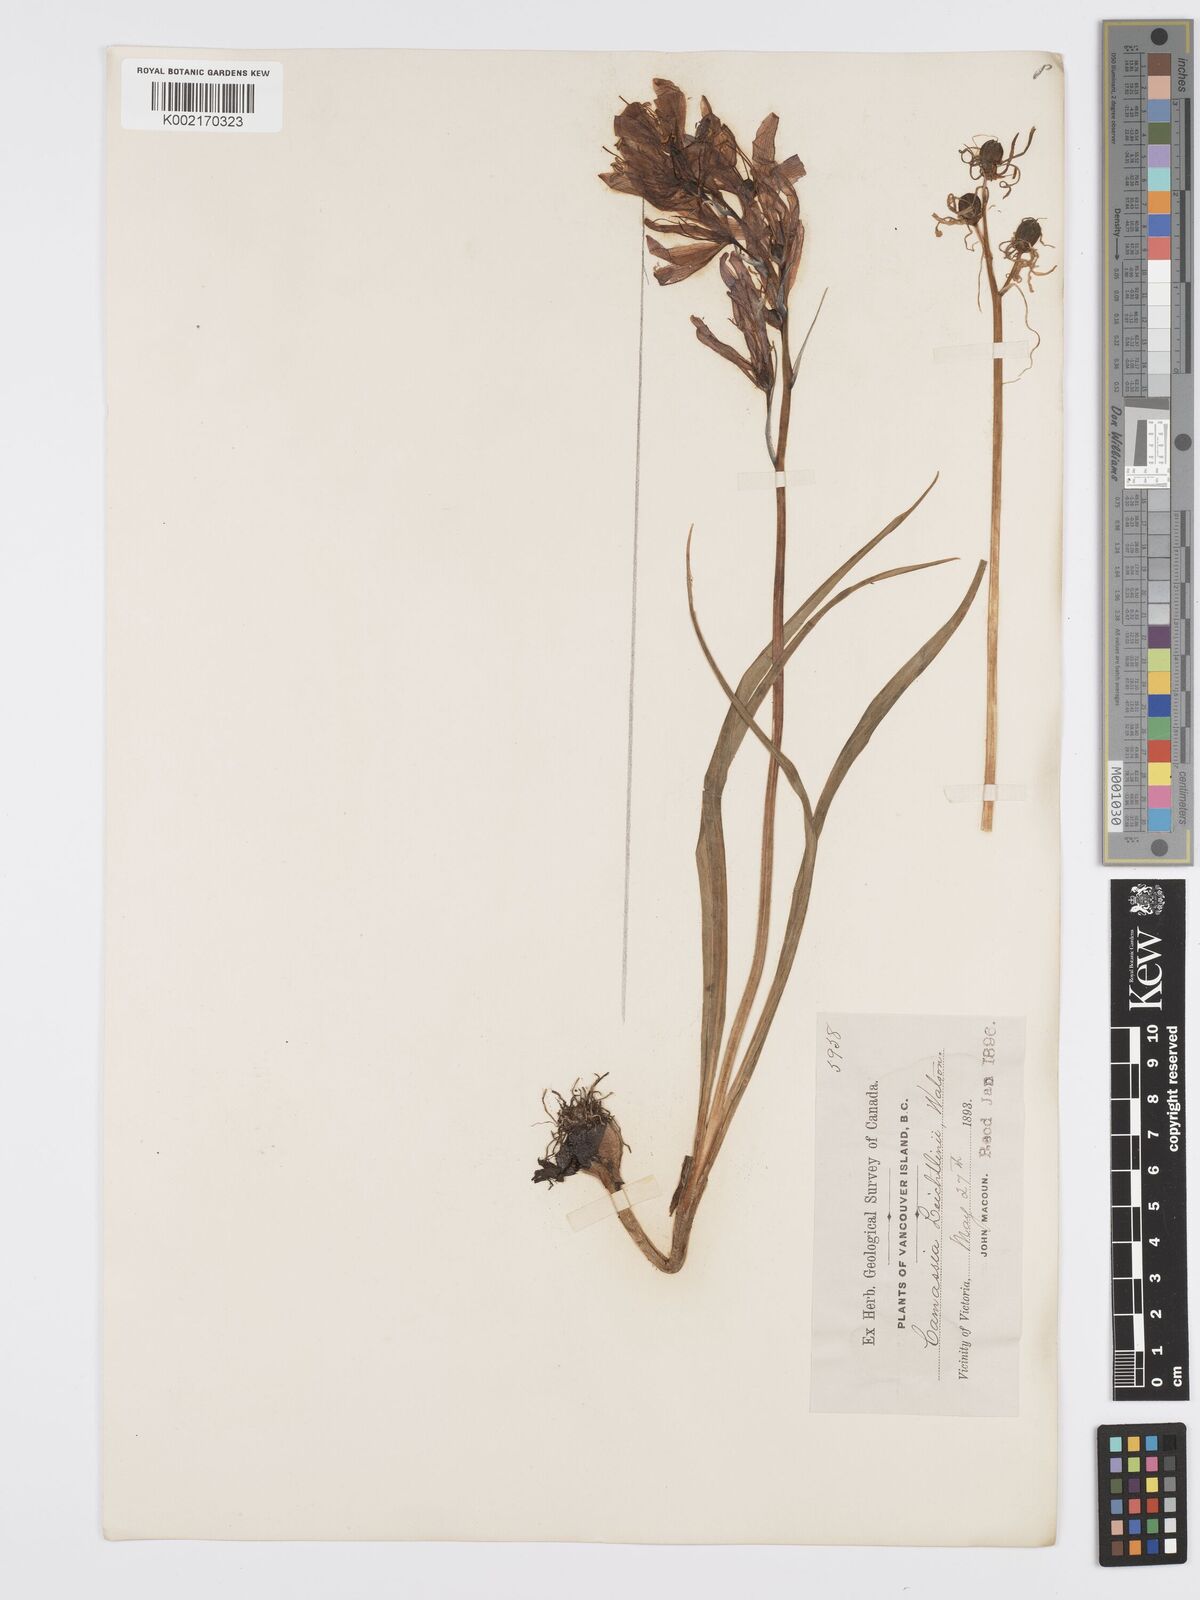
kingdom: Plantae
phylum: Tracheophyta
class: Liliopsida
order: Asparagales
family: Asparagaceae
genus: Camassia
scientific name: Camassia quamash
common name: Common camas
